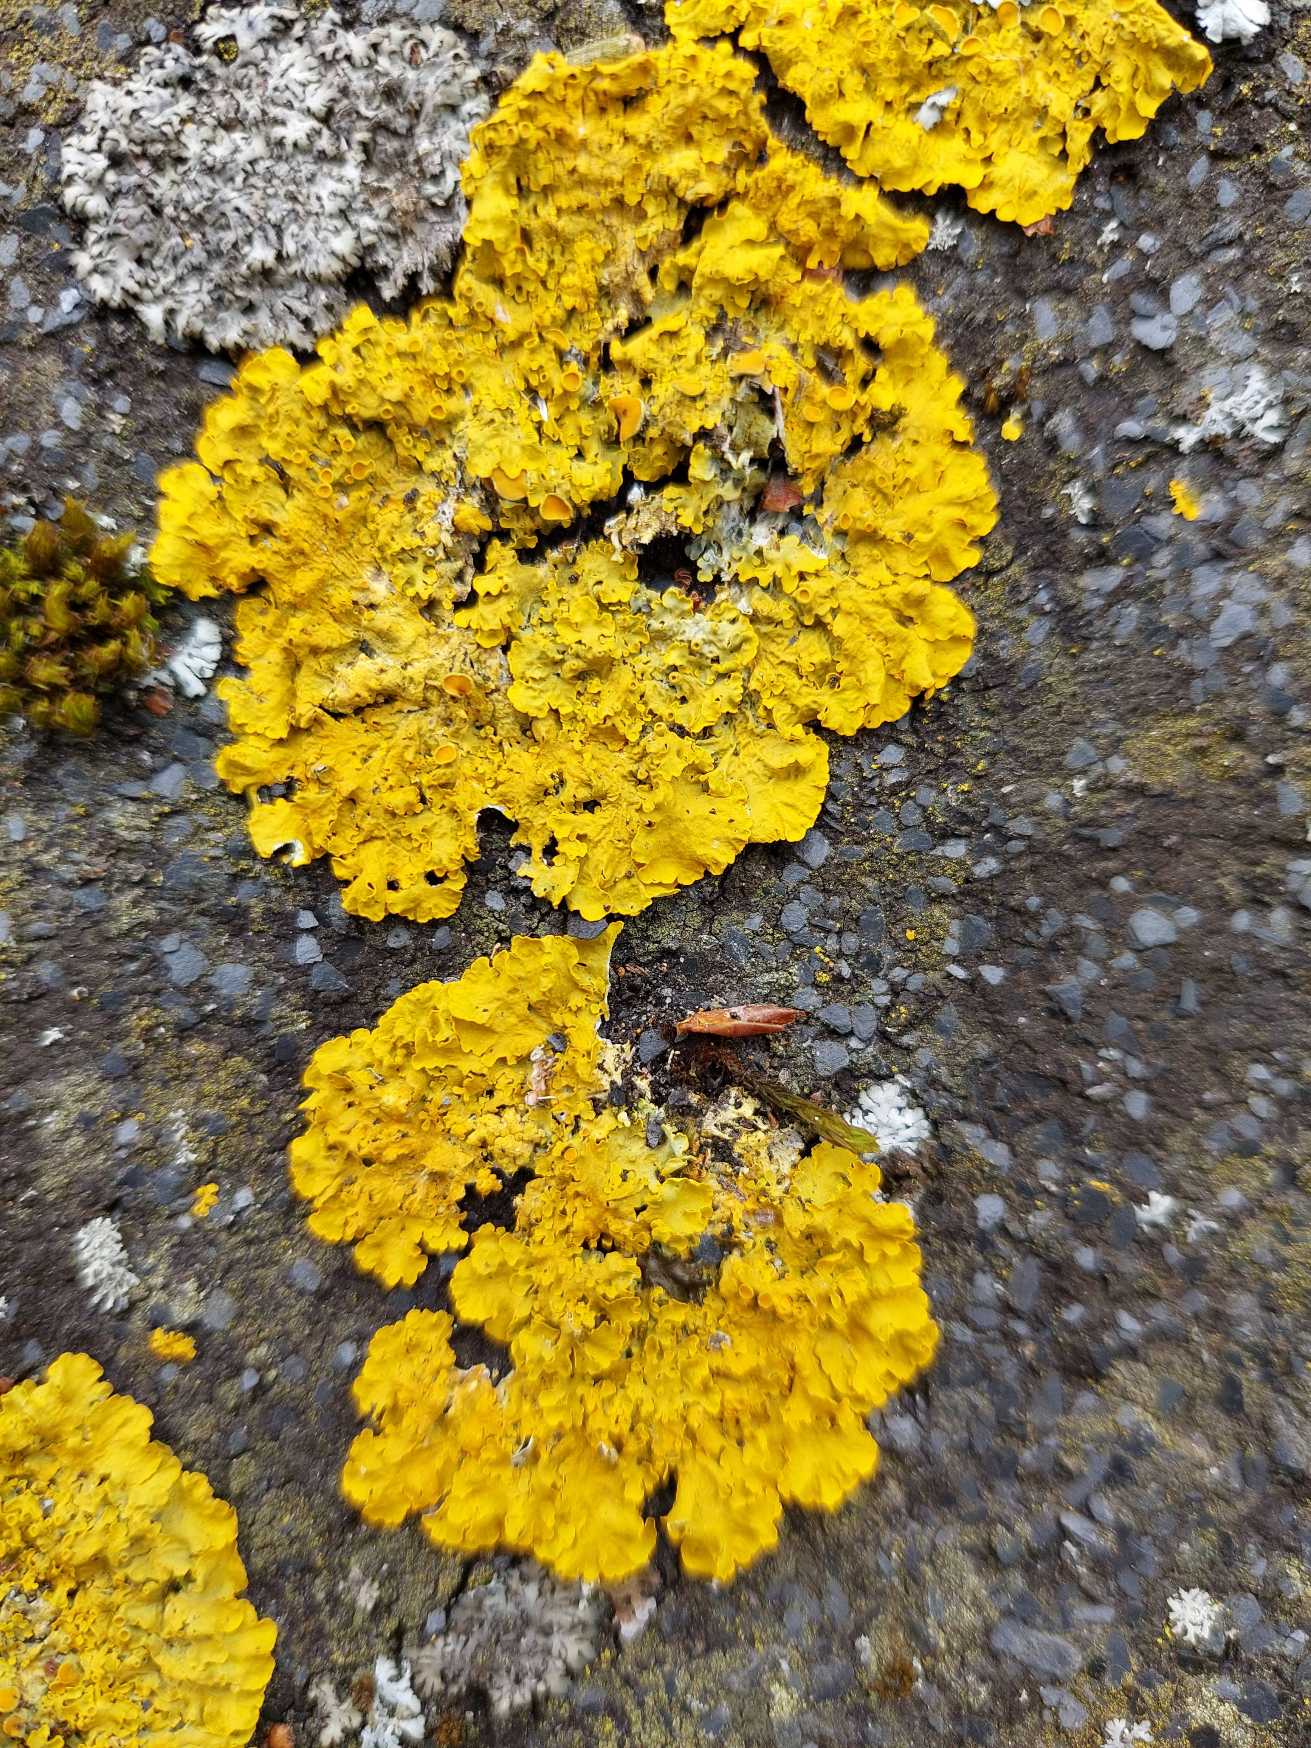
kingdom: Fungi
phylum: Ascomycota
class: Lecanoromycetes
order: Teloschistales
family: Teloschistaceae
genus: Xanthoria
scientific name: Xanthoria parietina
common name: Almindelig væggelav
